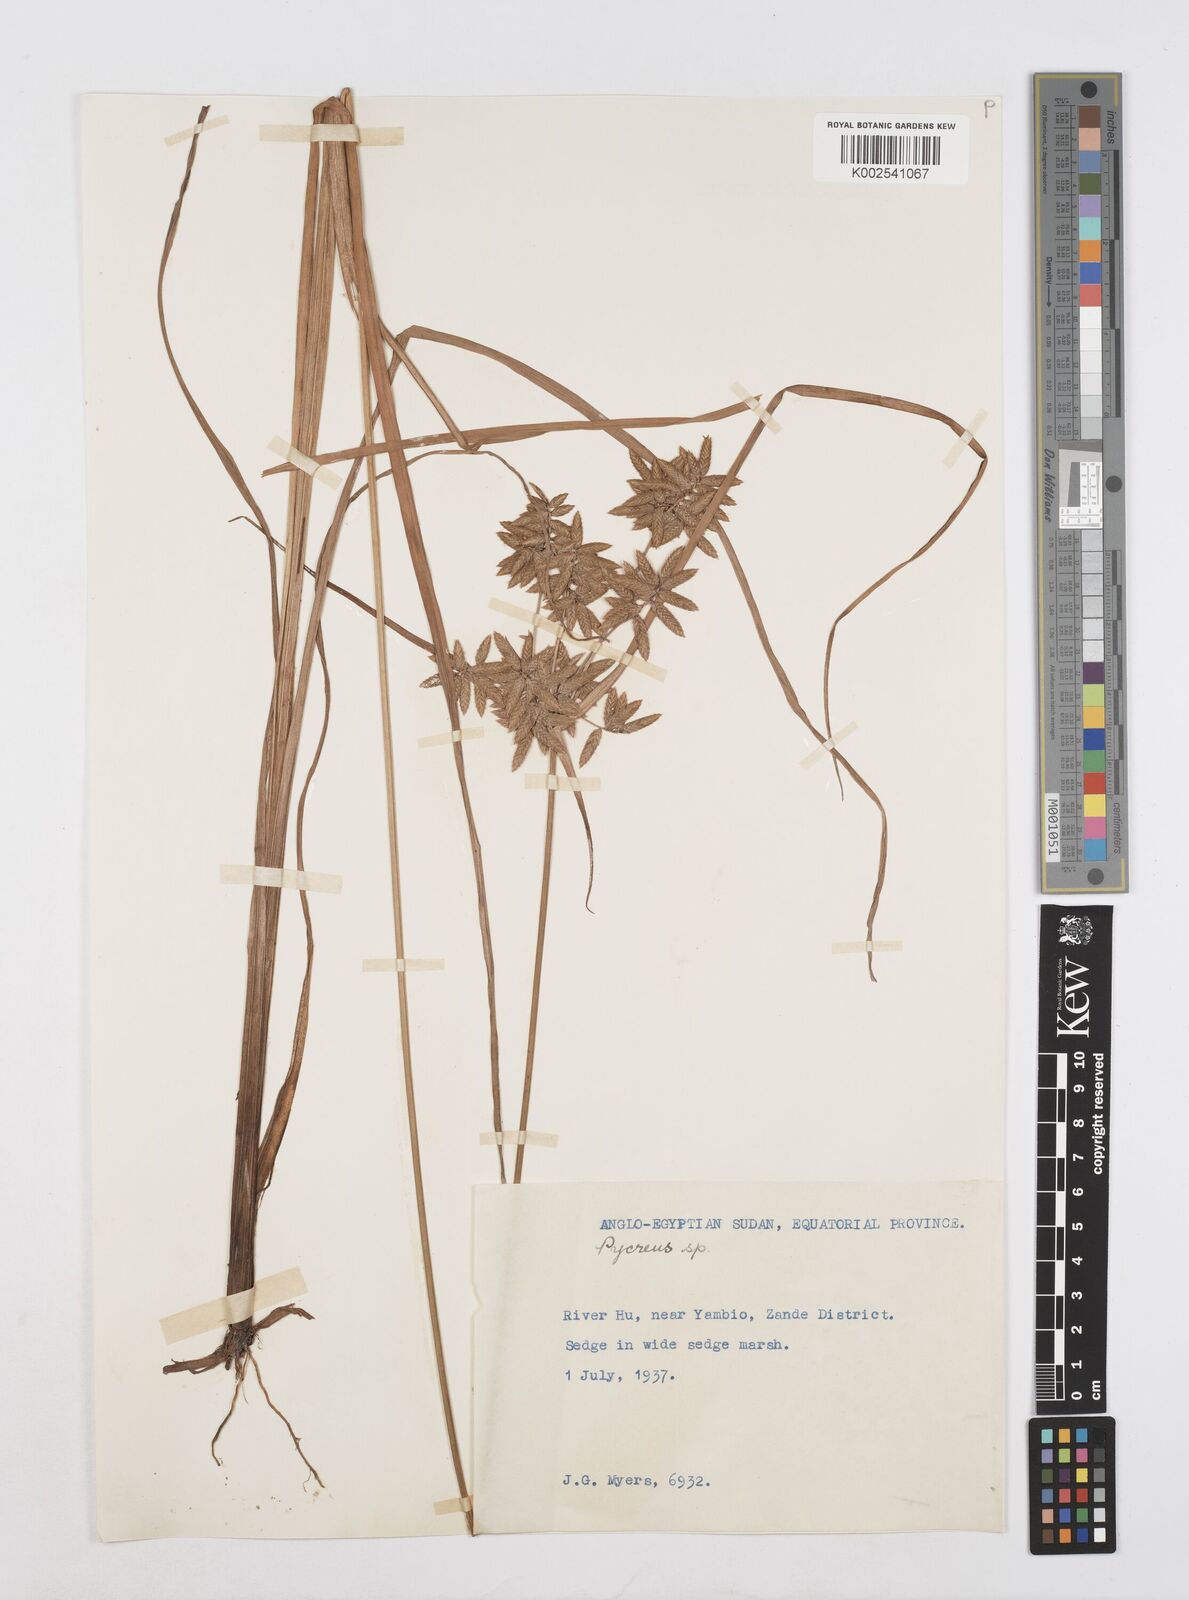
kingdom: Plantae
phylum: Tracheophyta
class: Liliopsida
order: Poales
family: Cyperaceae
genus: Cyperus
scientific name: Cyperus unioloides
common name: Uniola flatsedge
